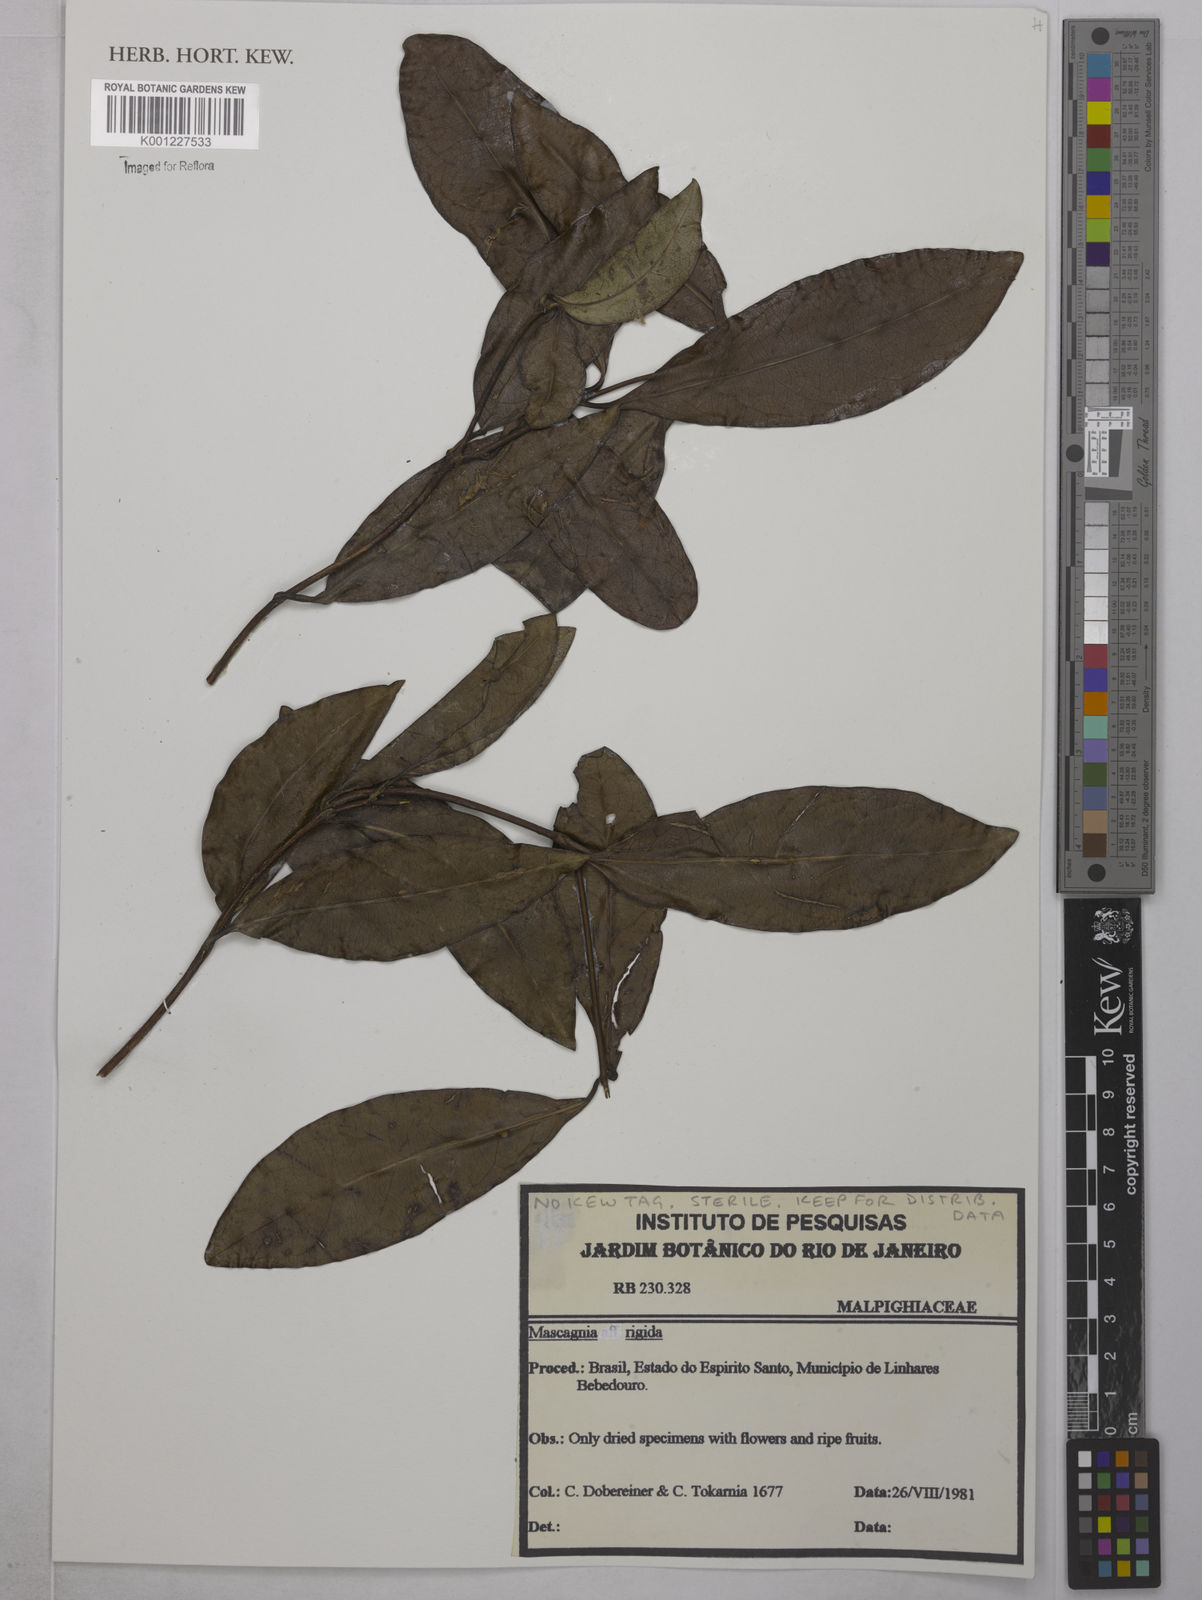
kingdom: Plantae
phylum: Tracheophyta
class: Magnoliopsida
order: Malpighiales
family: Malpighiaceae
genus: Heteropterys
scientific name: Heteropterys complicata
